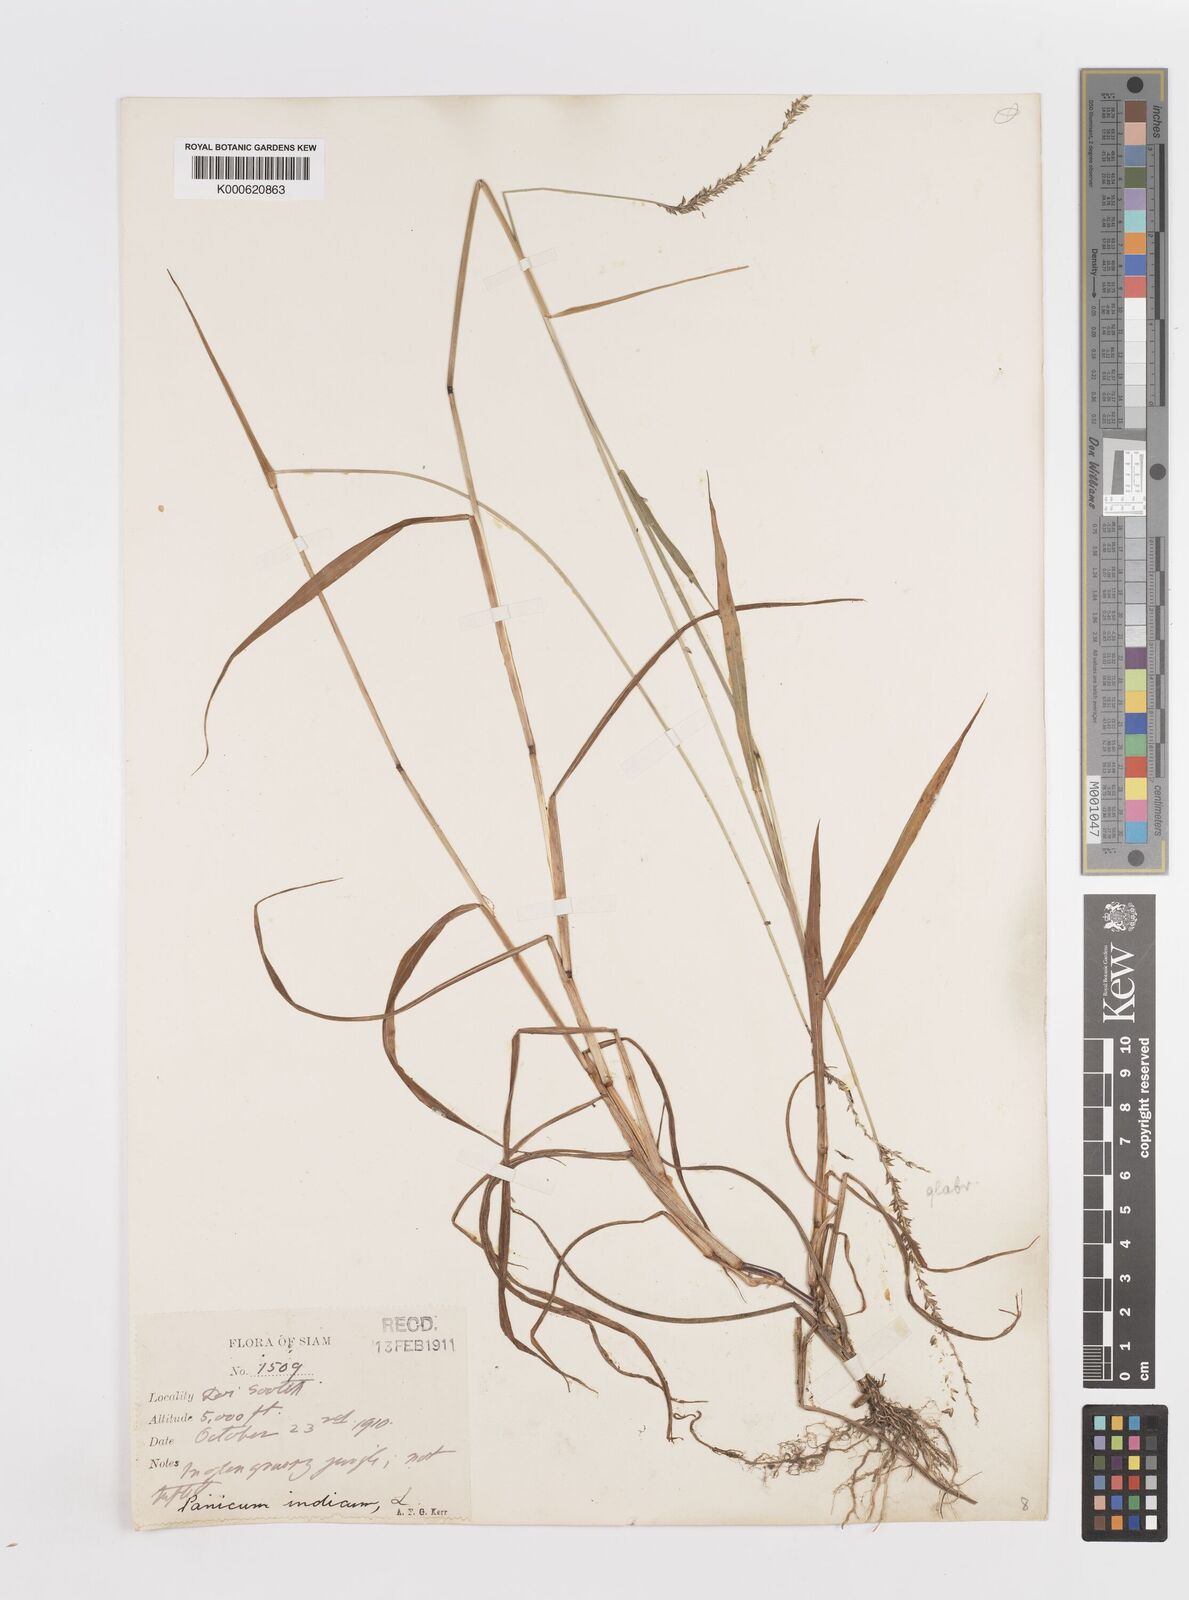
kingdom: Plantae
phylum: Tracheophyta
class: Liliopsida
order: Poales
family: Poaceae
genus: Sacciolepis
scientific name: Sacciolepis indica
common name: Glenwoodgrass
